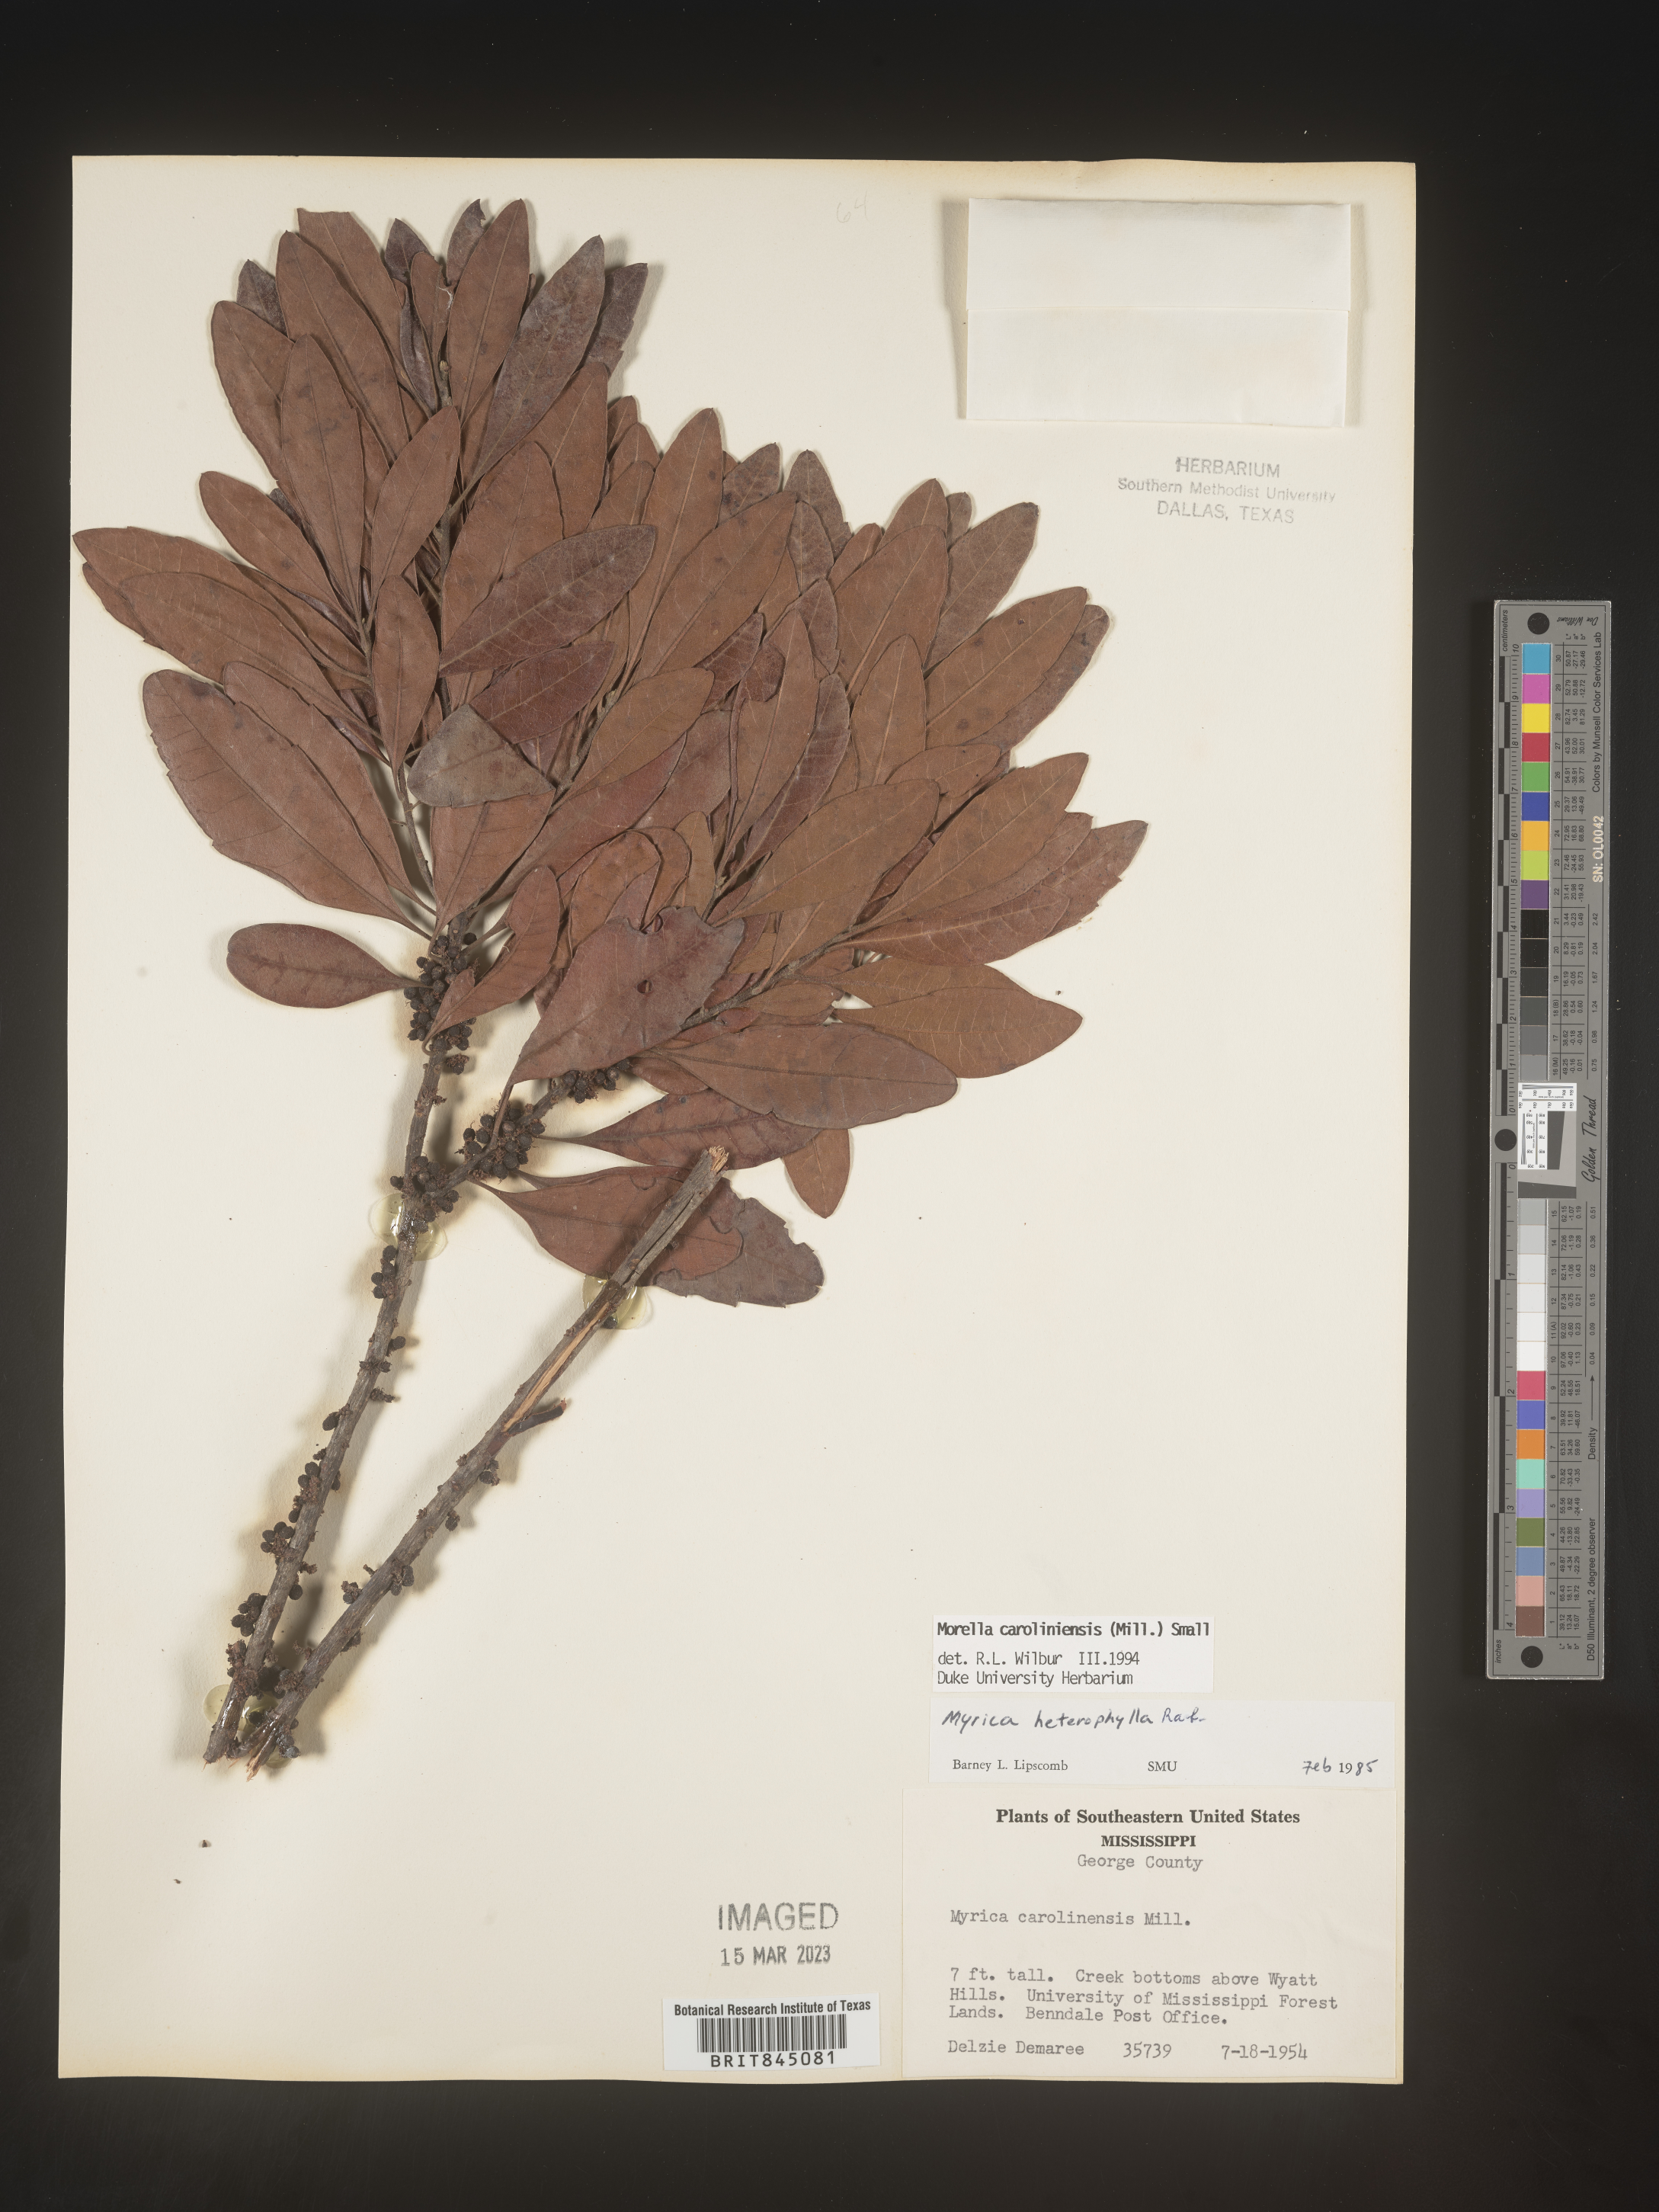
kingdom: Plantae
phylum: Tracheophyta
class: Magnoliopsida
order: Fagales
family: Myricaceae
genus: Morella
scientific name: Morella caroliniensis
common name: Evergreen bayberry
